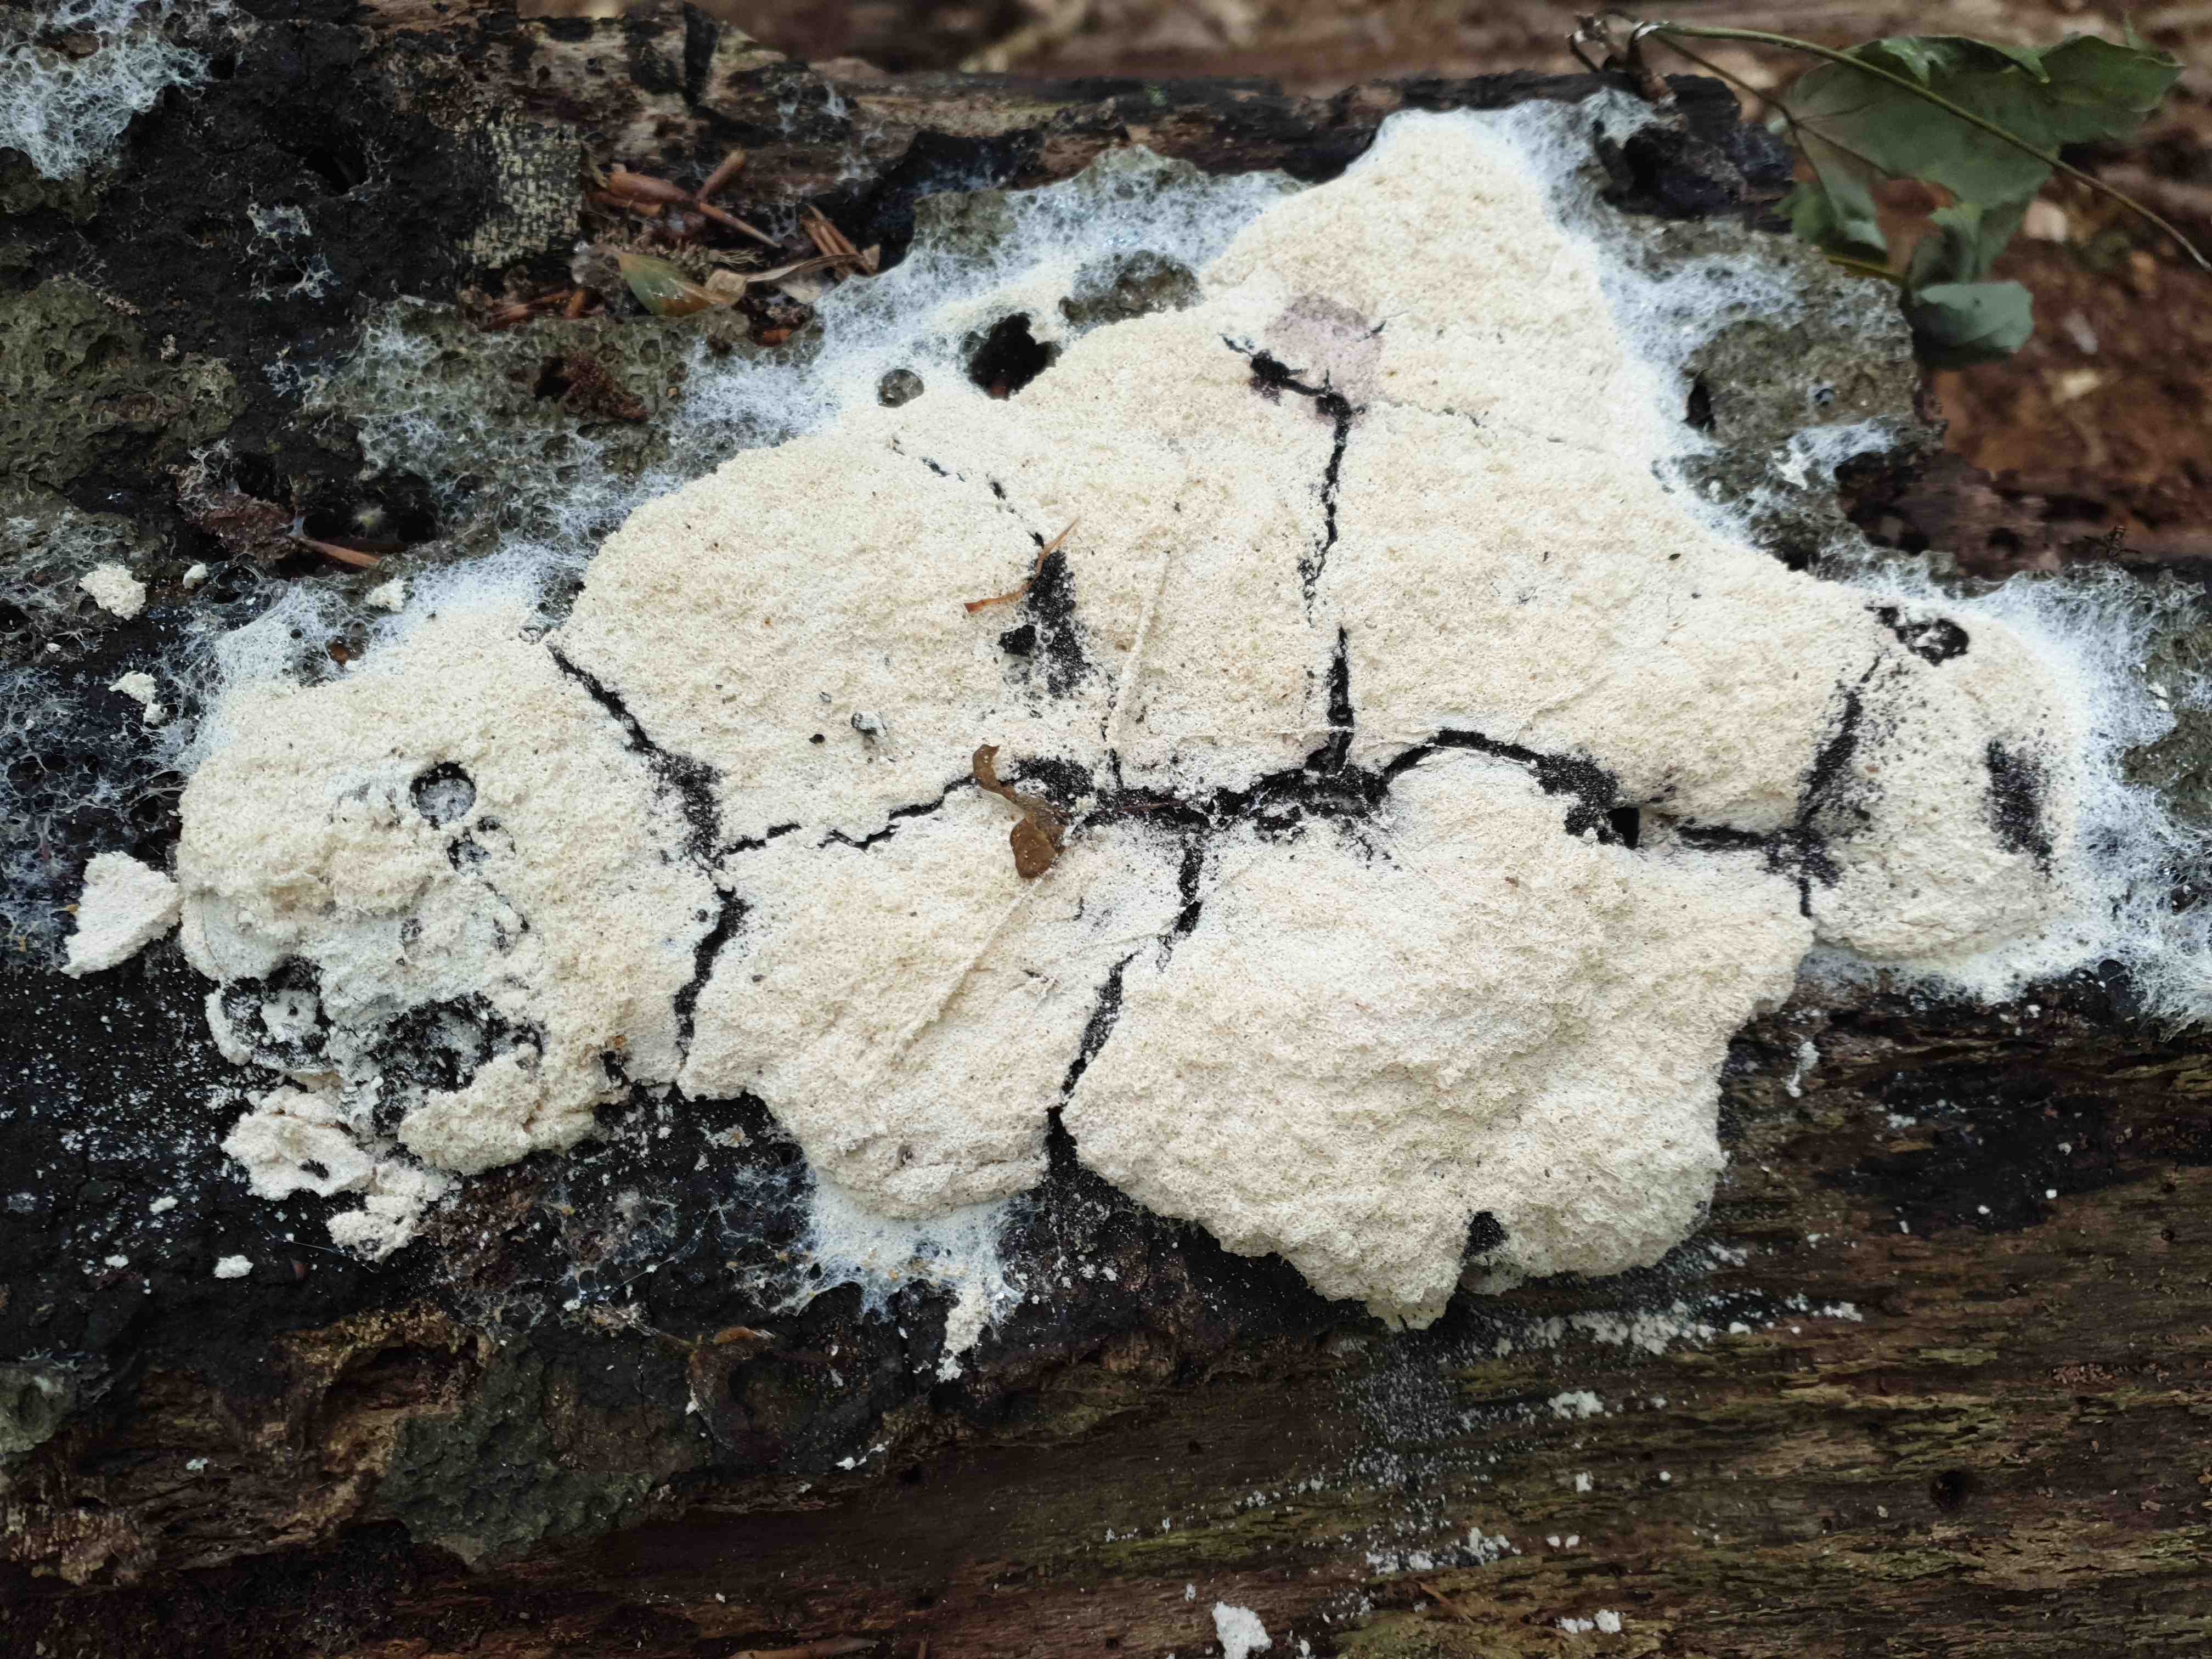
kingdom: Protozoa
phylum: Mycetozoa
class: Myxomycetes
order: Physarales
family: Physaraceae
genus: Fuligo
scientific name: Fuligo septica
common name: gul troldsmør
